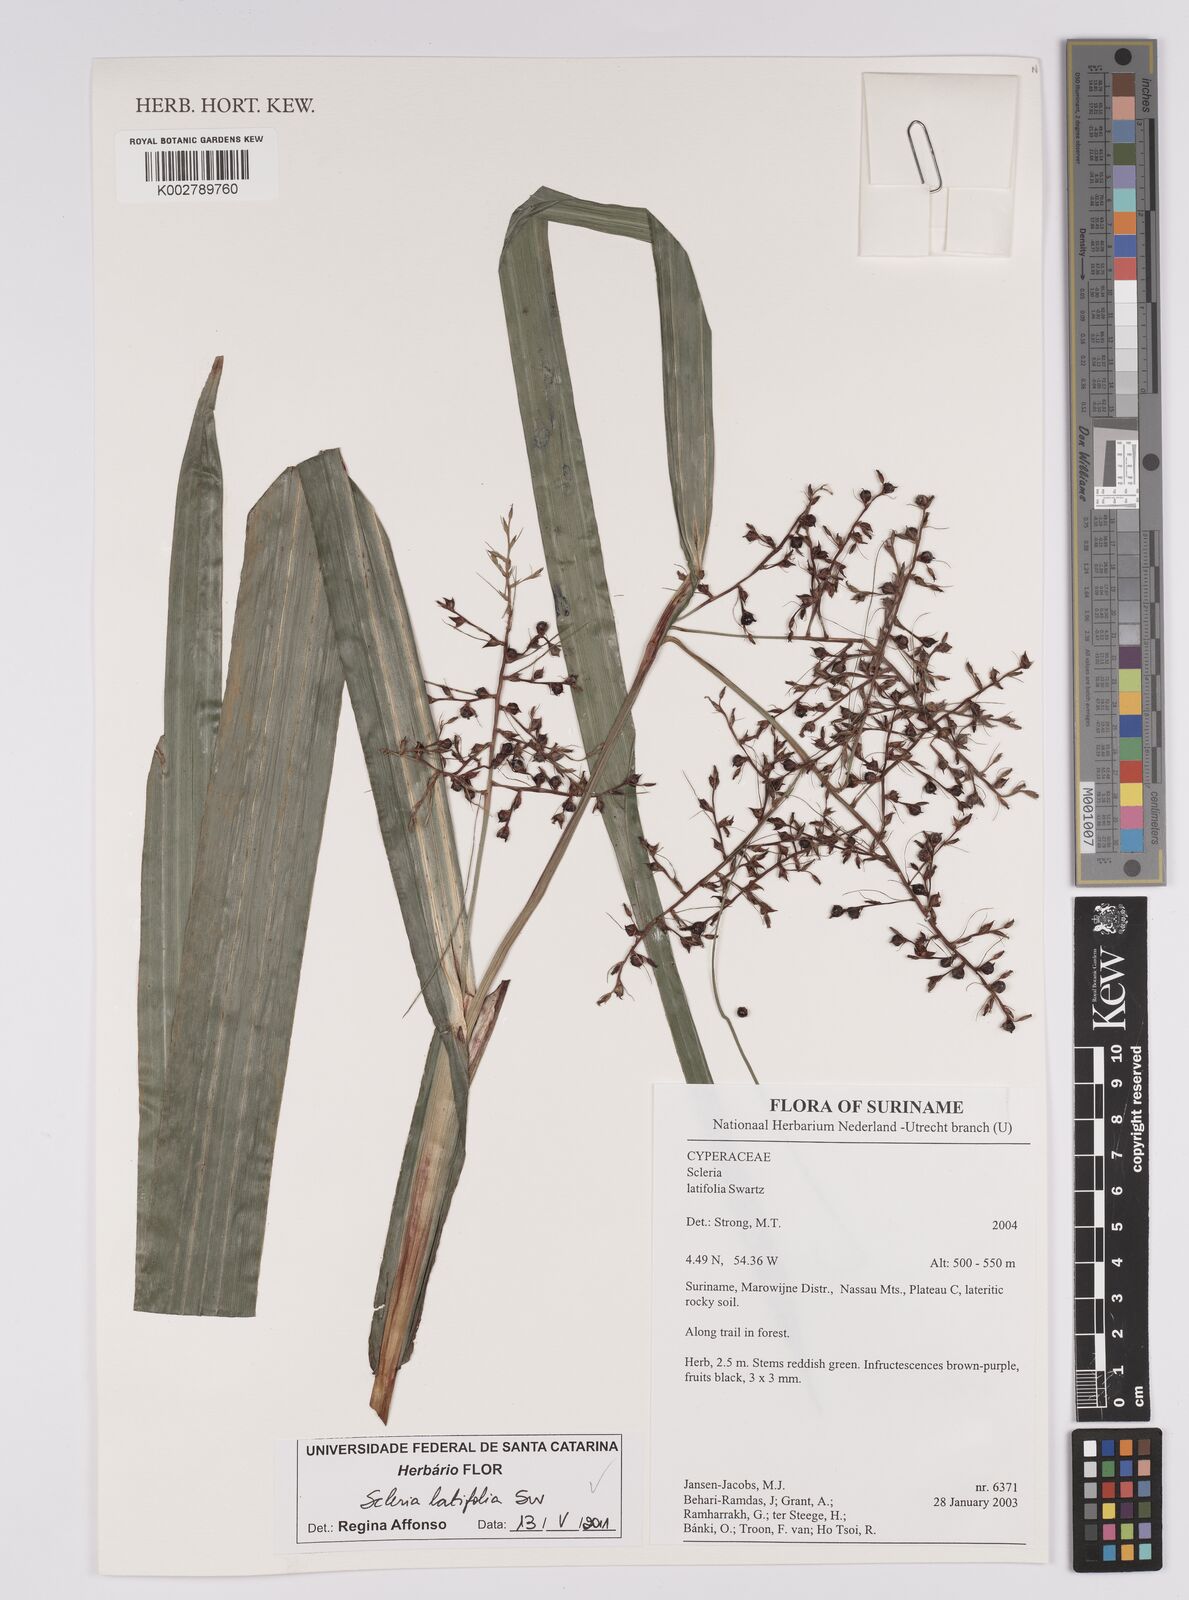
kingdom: Plantae
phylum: Tracheophyta
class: Liliopsida
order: Poales
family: Cyperaceae
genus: Scleria
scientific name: Scleria latifolia
